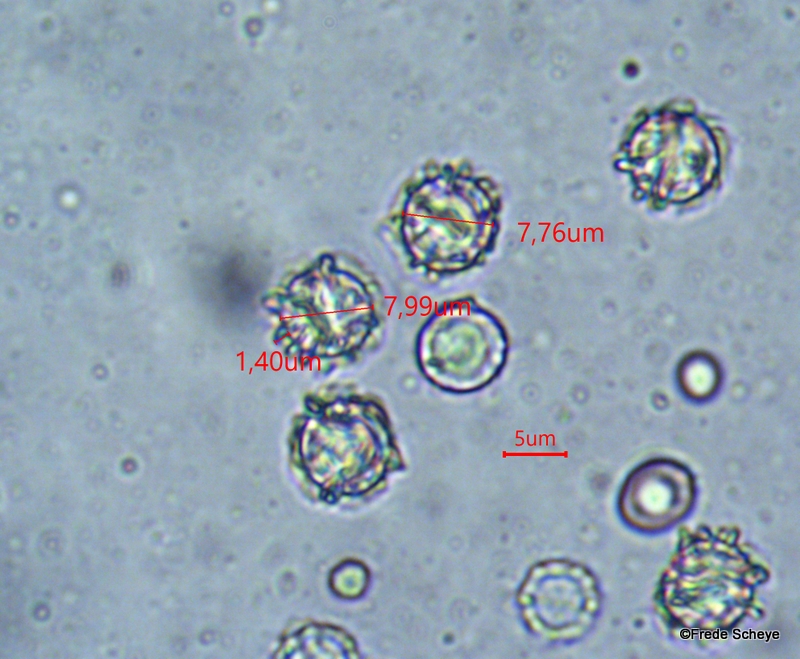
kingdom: Fungi
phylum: Basidiomycota
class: Agaricomycetes
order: Russulales
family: Russulaceae
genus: Lactarius
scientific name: Lactarius pterosporus
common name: vingesporet mælkehat
